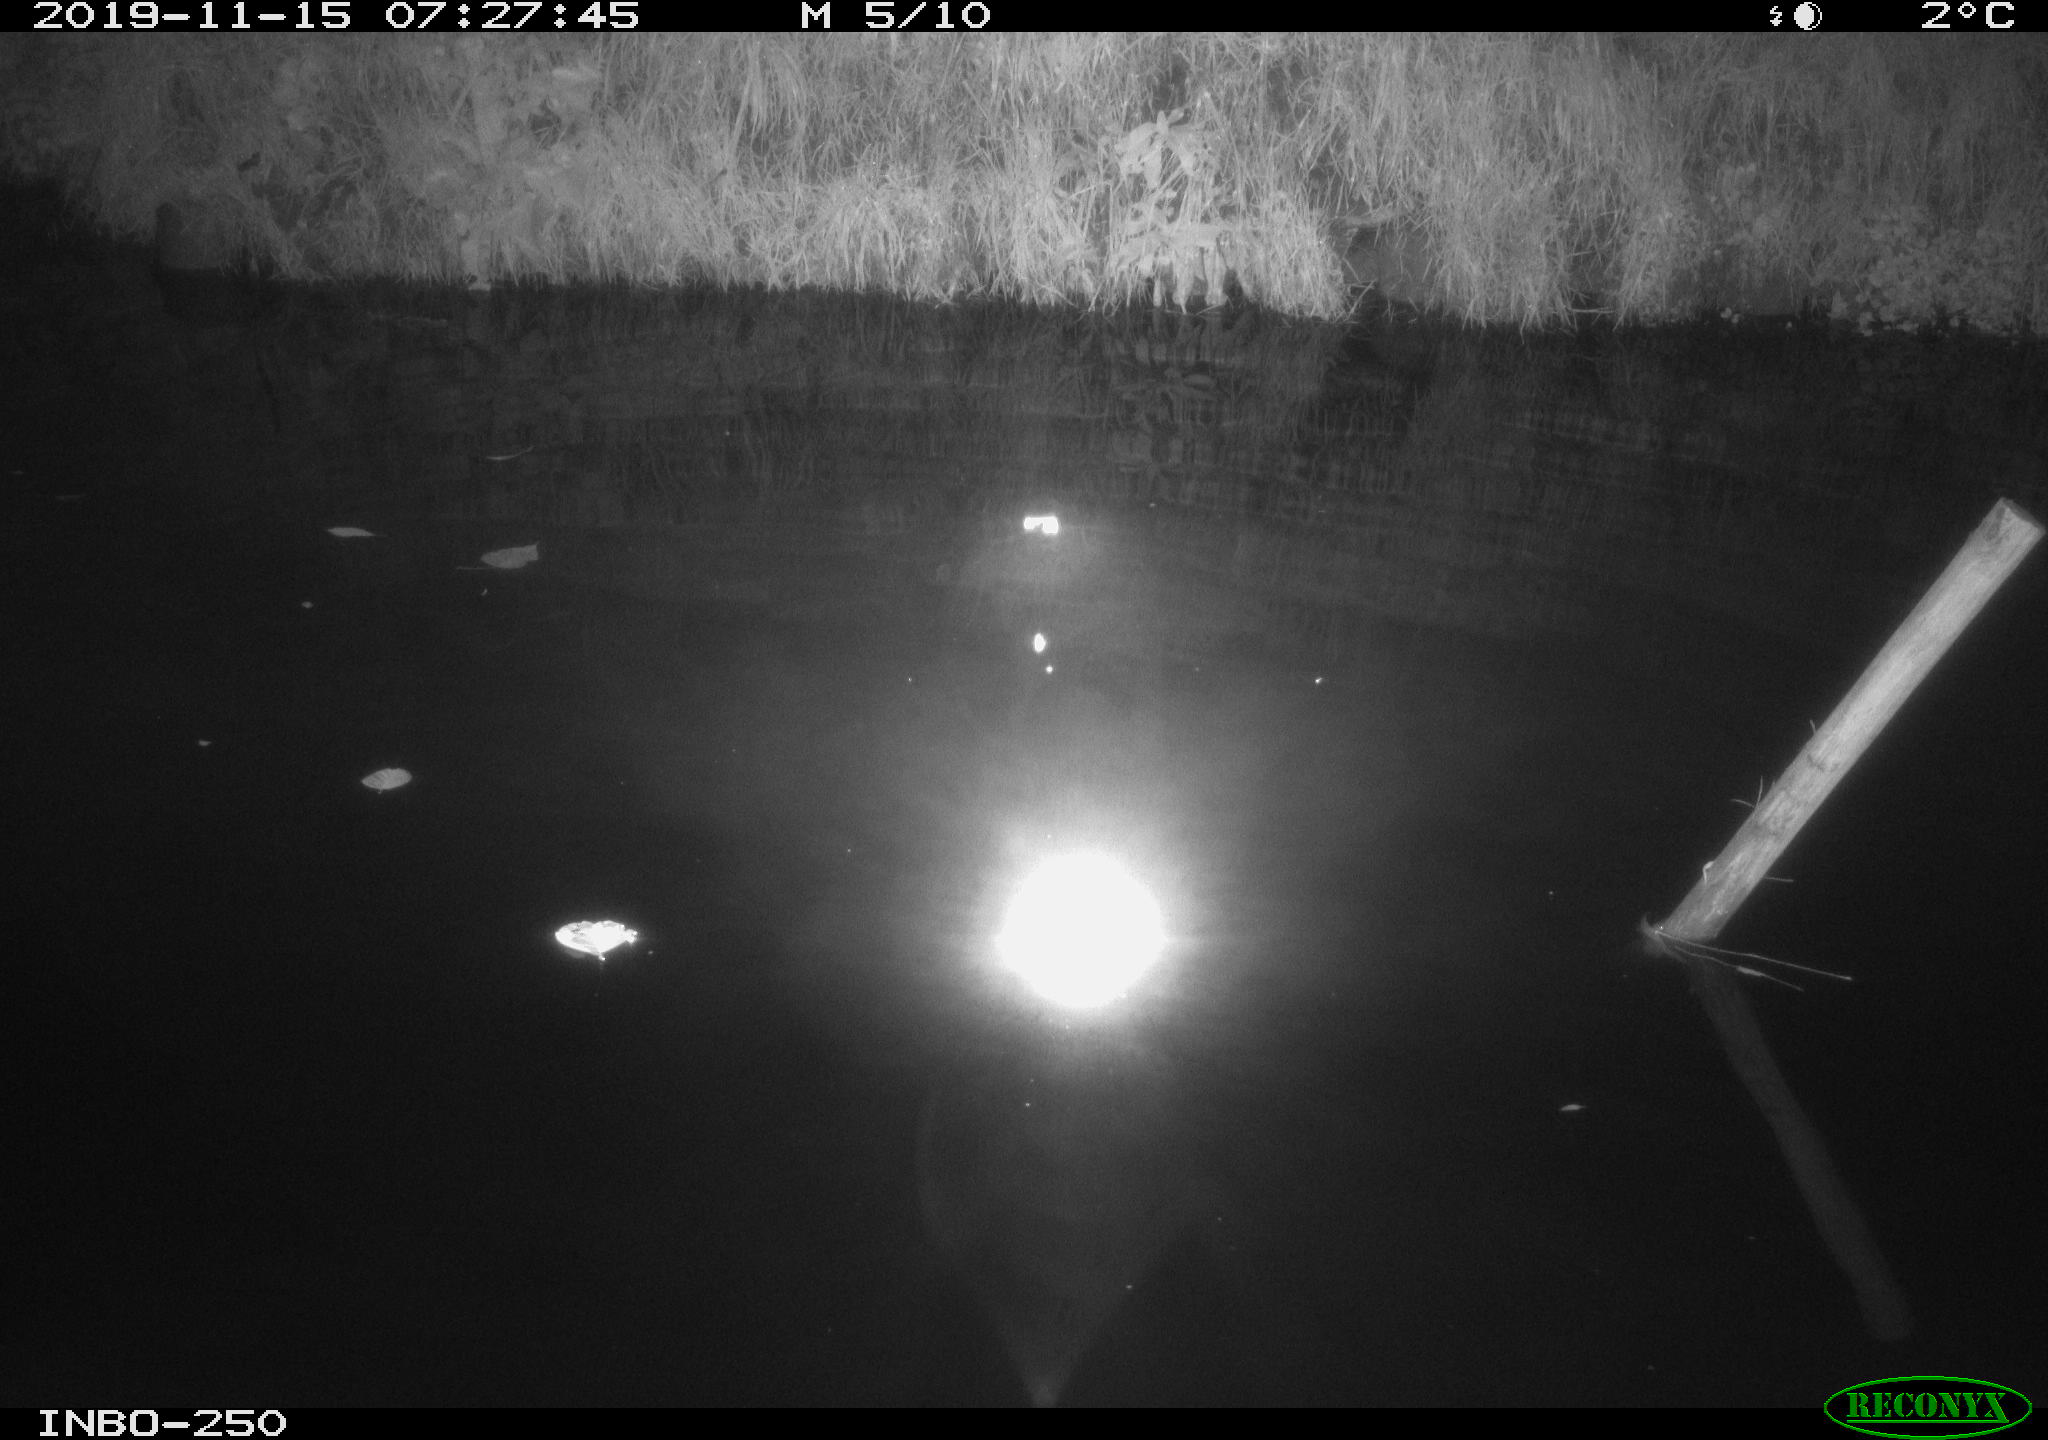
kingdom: Animalia
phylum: Chordata
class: Aves
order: Anseriformes
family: Anatidae
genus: Anas
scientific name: Anas platyrhynchos
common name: Mallard
